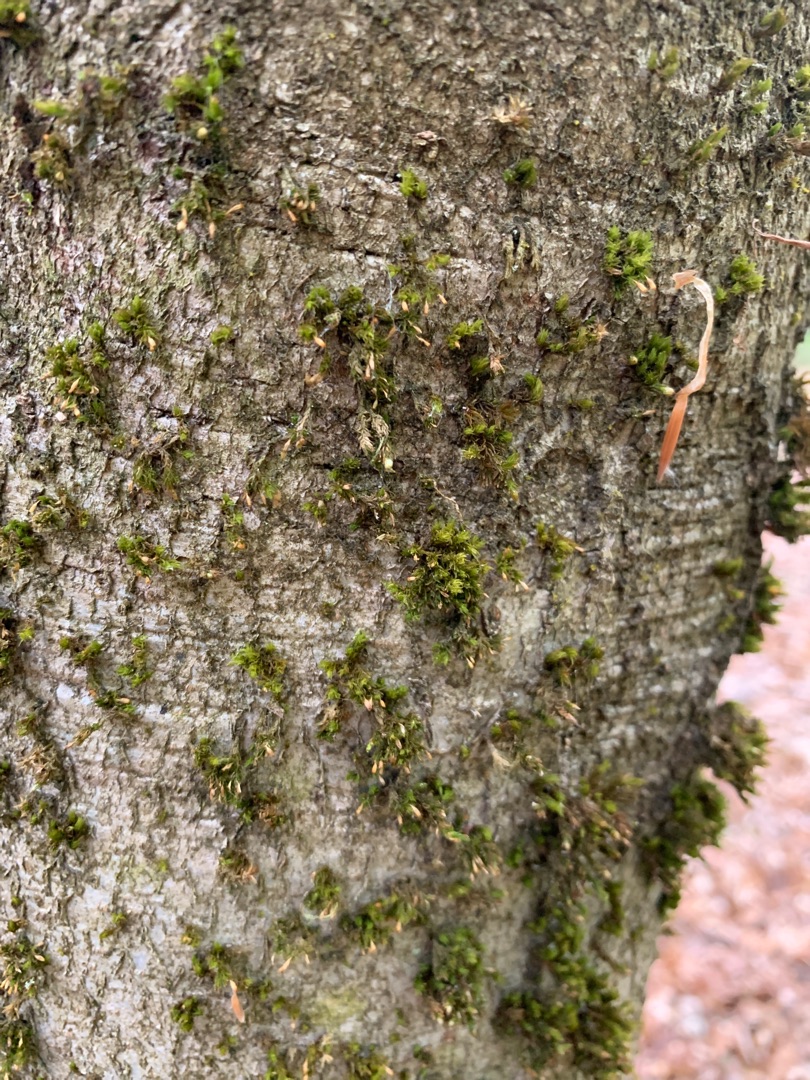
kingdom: Plantae
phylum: Bryophyta
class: Bryopsida
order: Orthotrichales
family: Orthotrichaceae
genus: Orthotrichum
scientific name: Orthotrichum pulchellum
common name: Smuk furehætte
